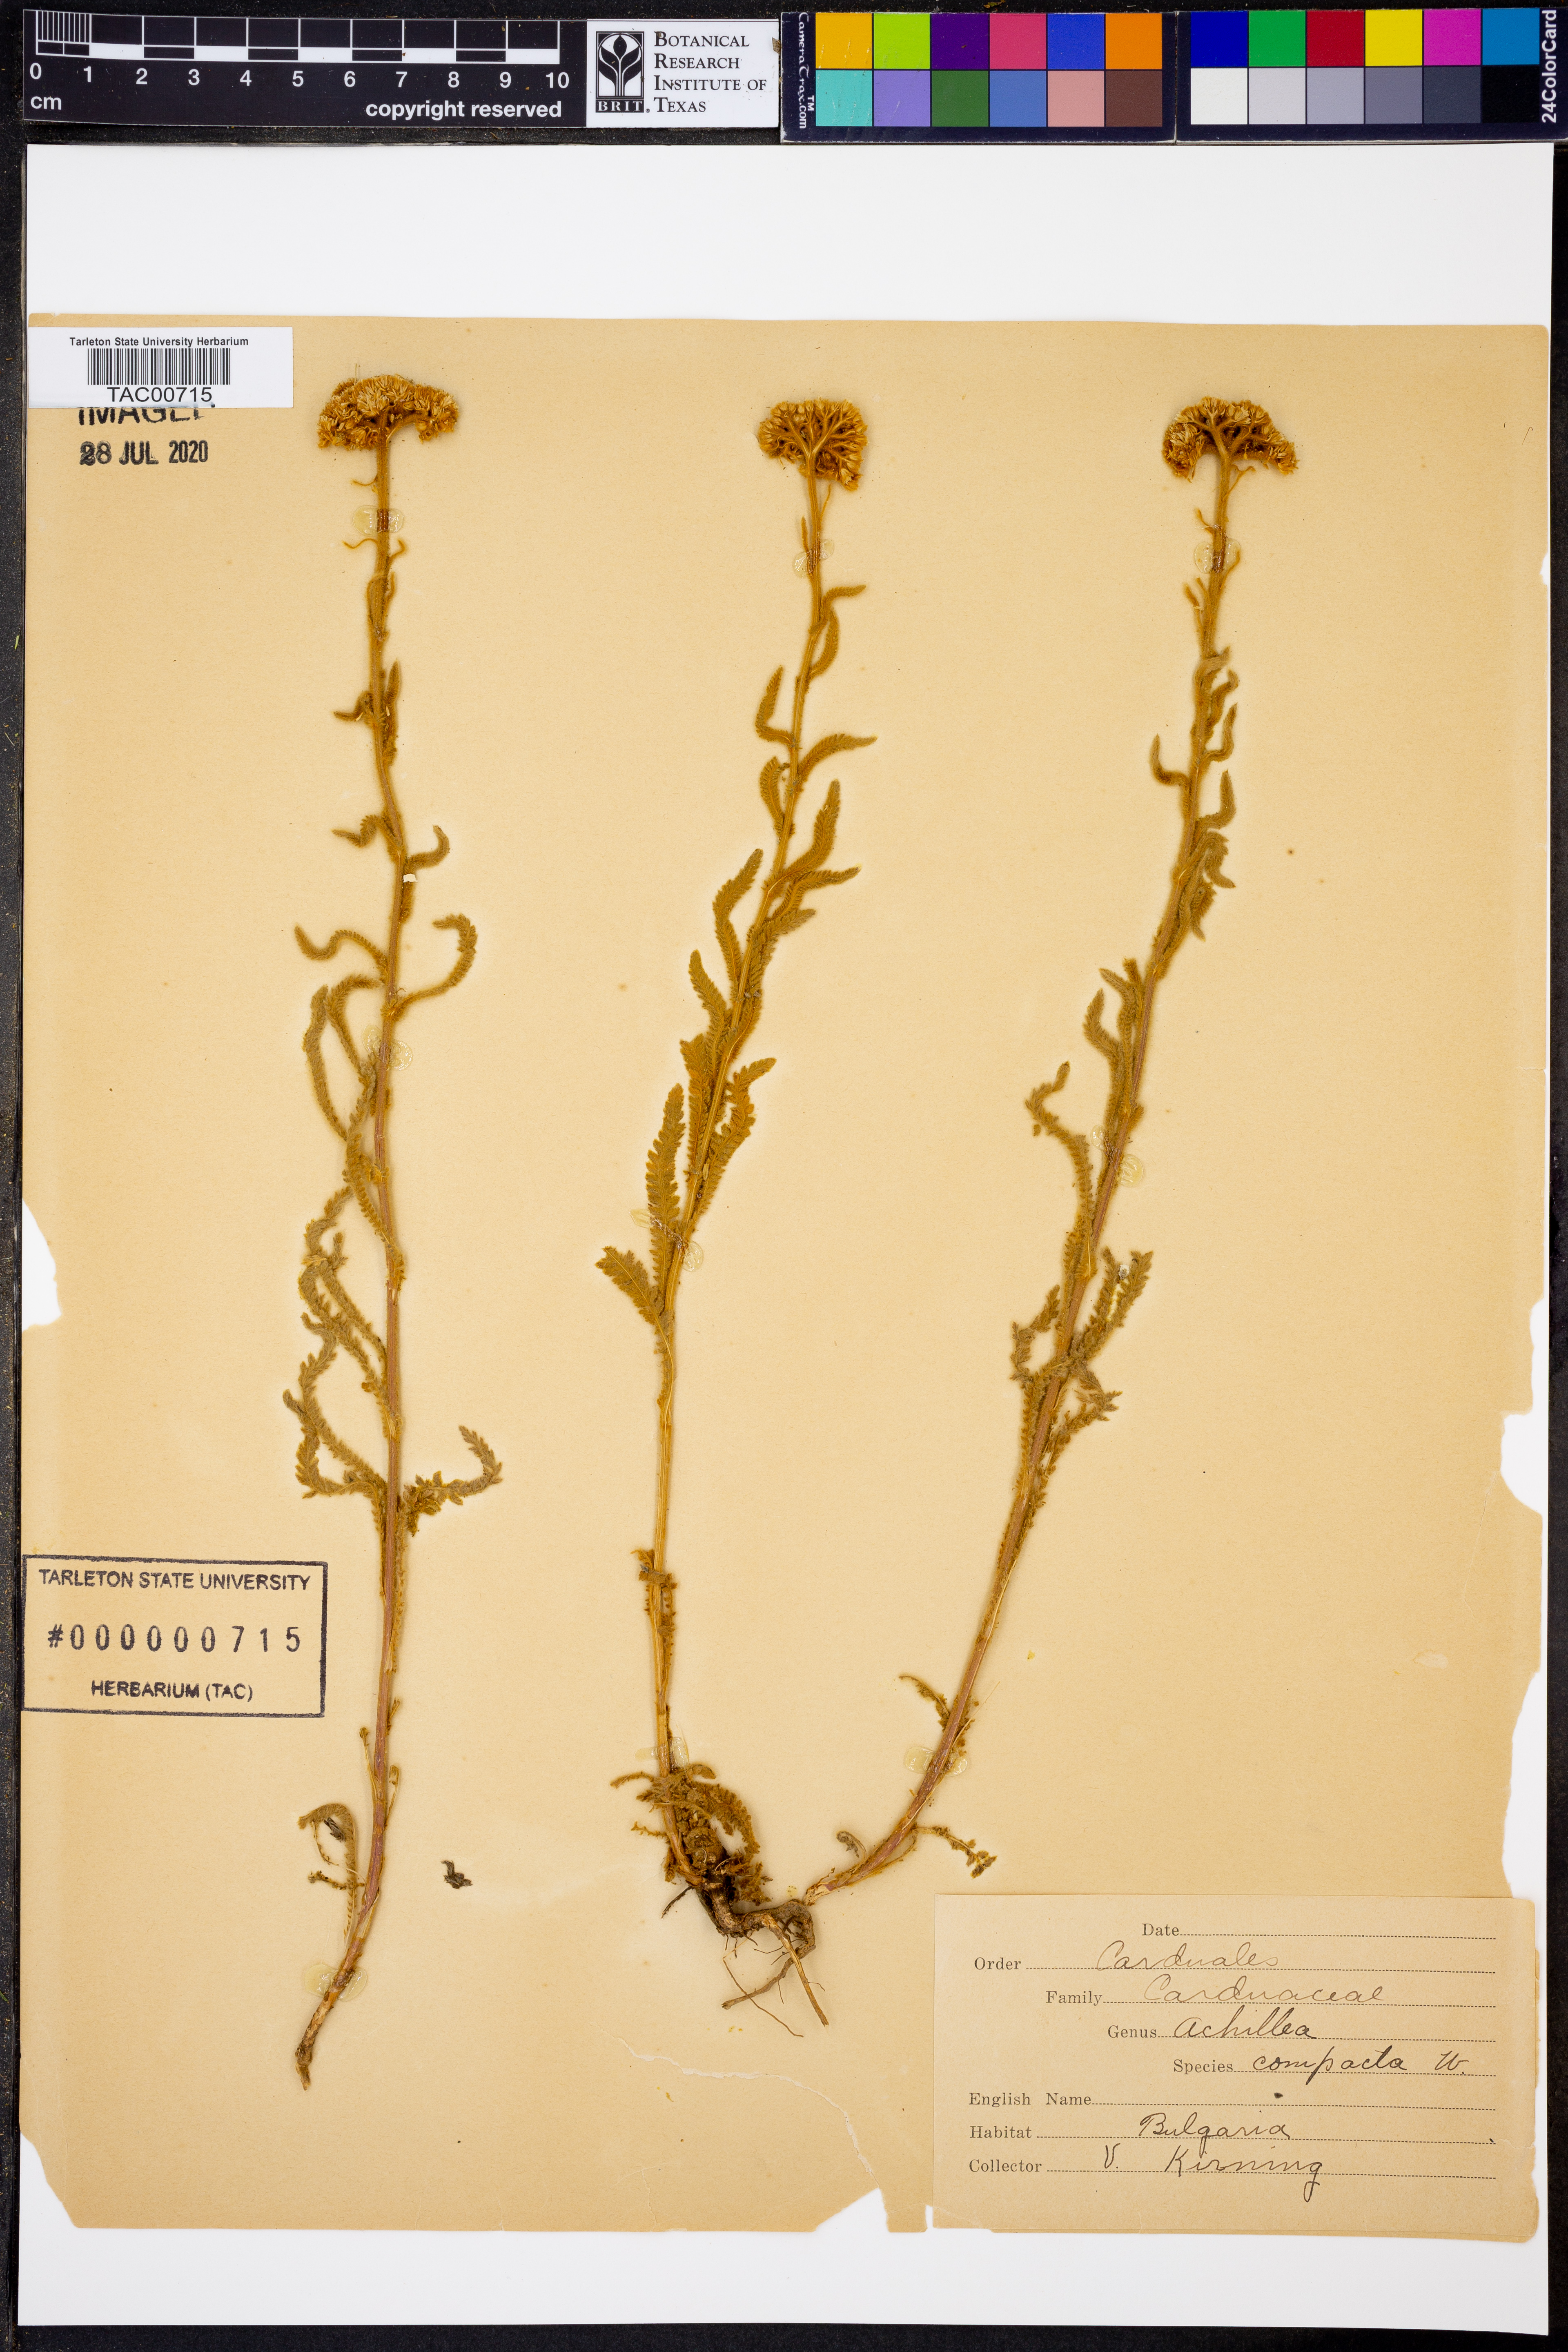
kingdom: Plantae
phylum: Tracheophyta
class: Magnoliopsida
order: Asterales
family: Asteraceae
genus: Achillea
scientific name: Achillea
